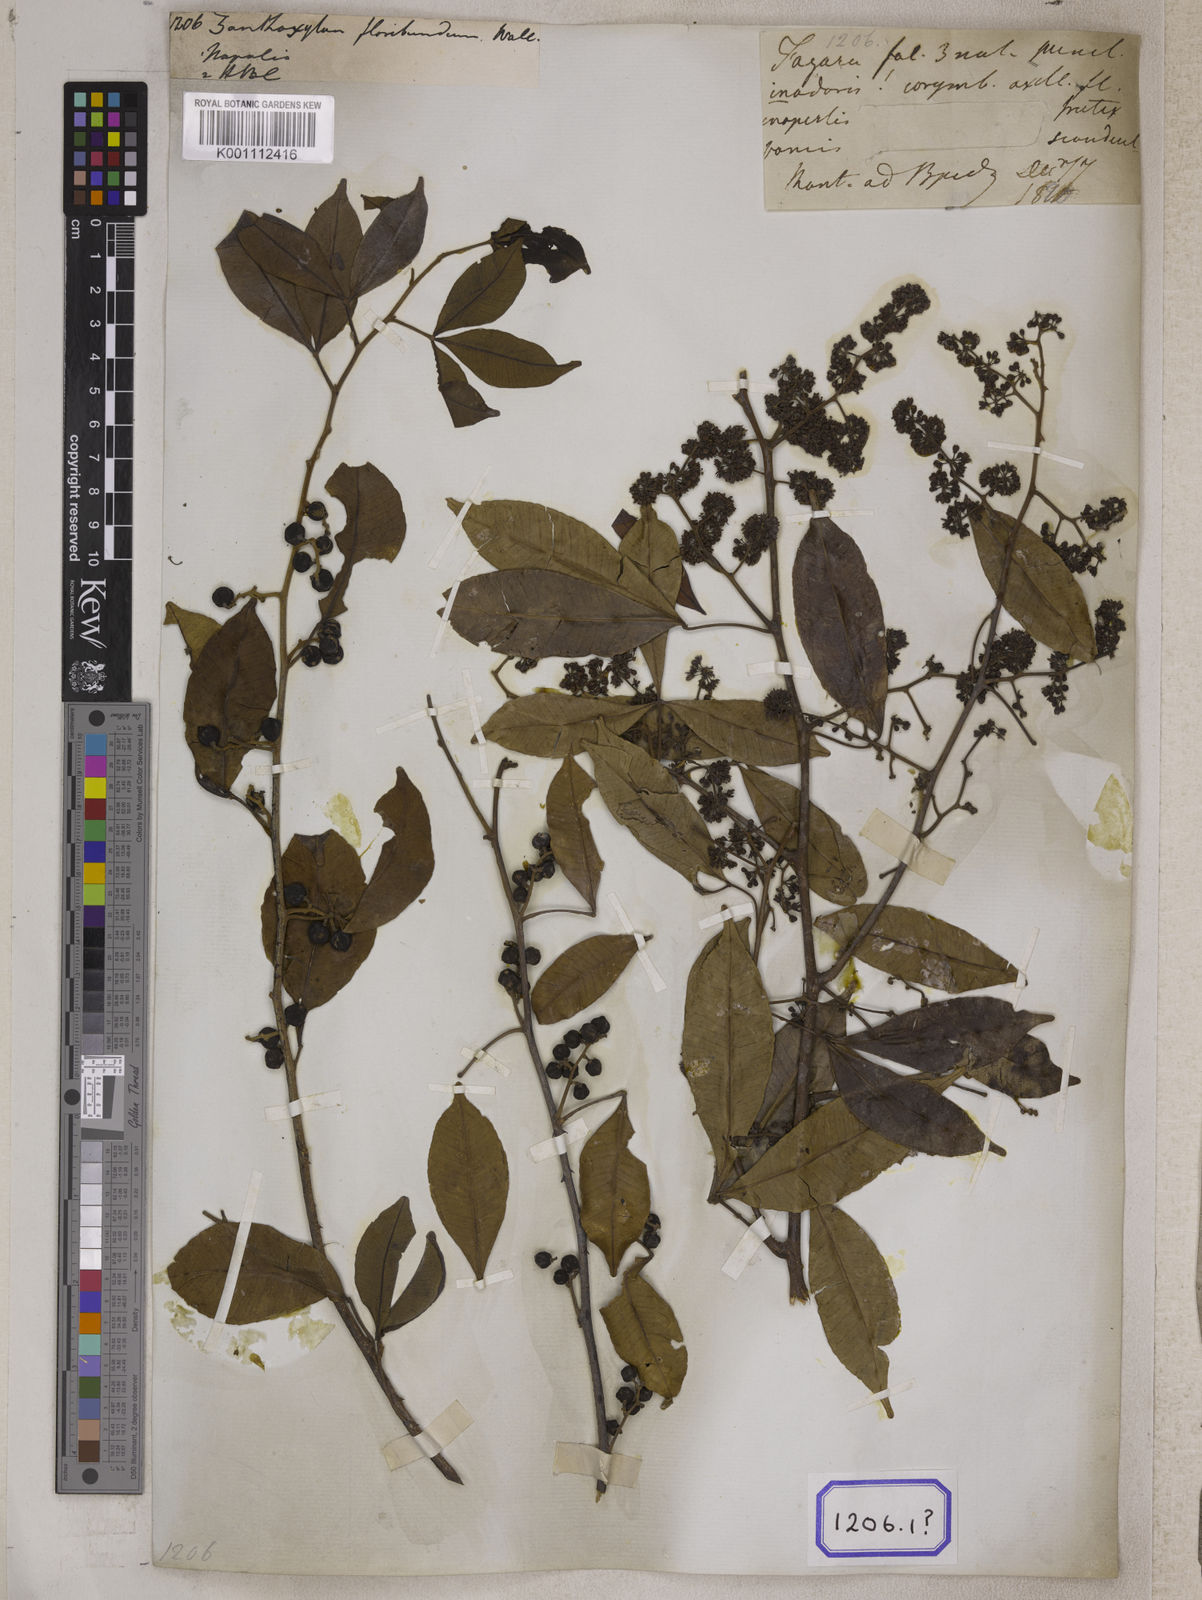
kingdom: Plantae
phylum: Tracheophyta
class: Magnoliopsida
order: Sapindales
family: Rutaceae
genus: Zanthoxylum
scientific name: Zanthoxylum asiaticum
